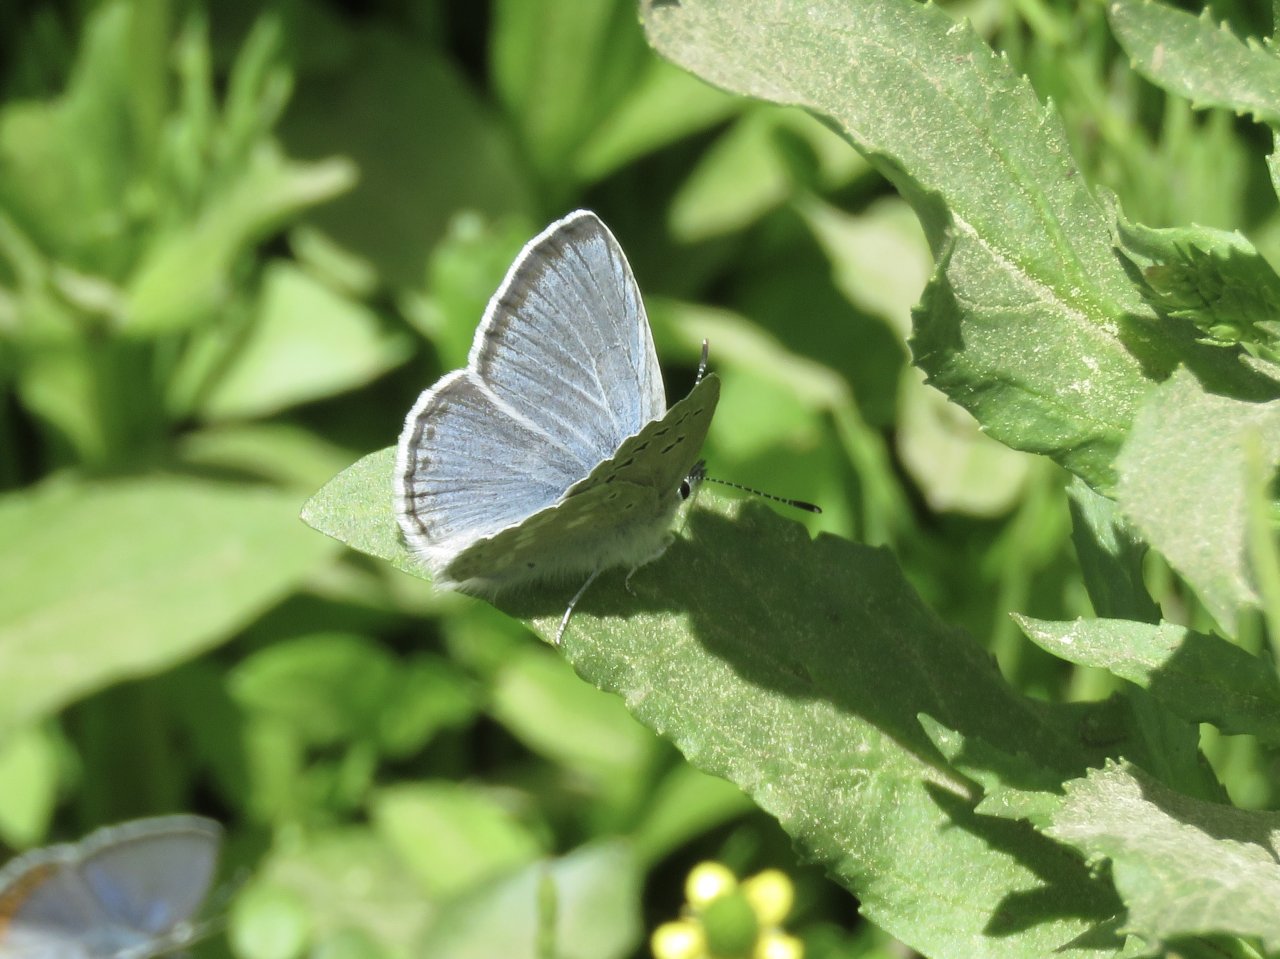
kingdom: Animalia
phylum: Arthropoda
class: Insecta
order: Lepidoptera
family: Lycaenidae
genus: Icaricia
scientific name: Icaricia icarioides
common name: Boisduval's Blue
